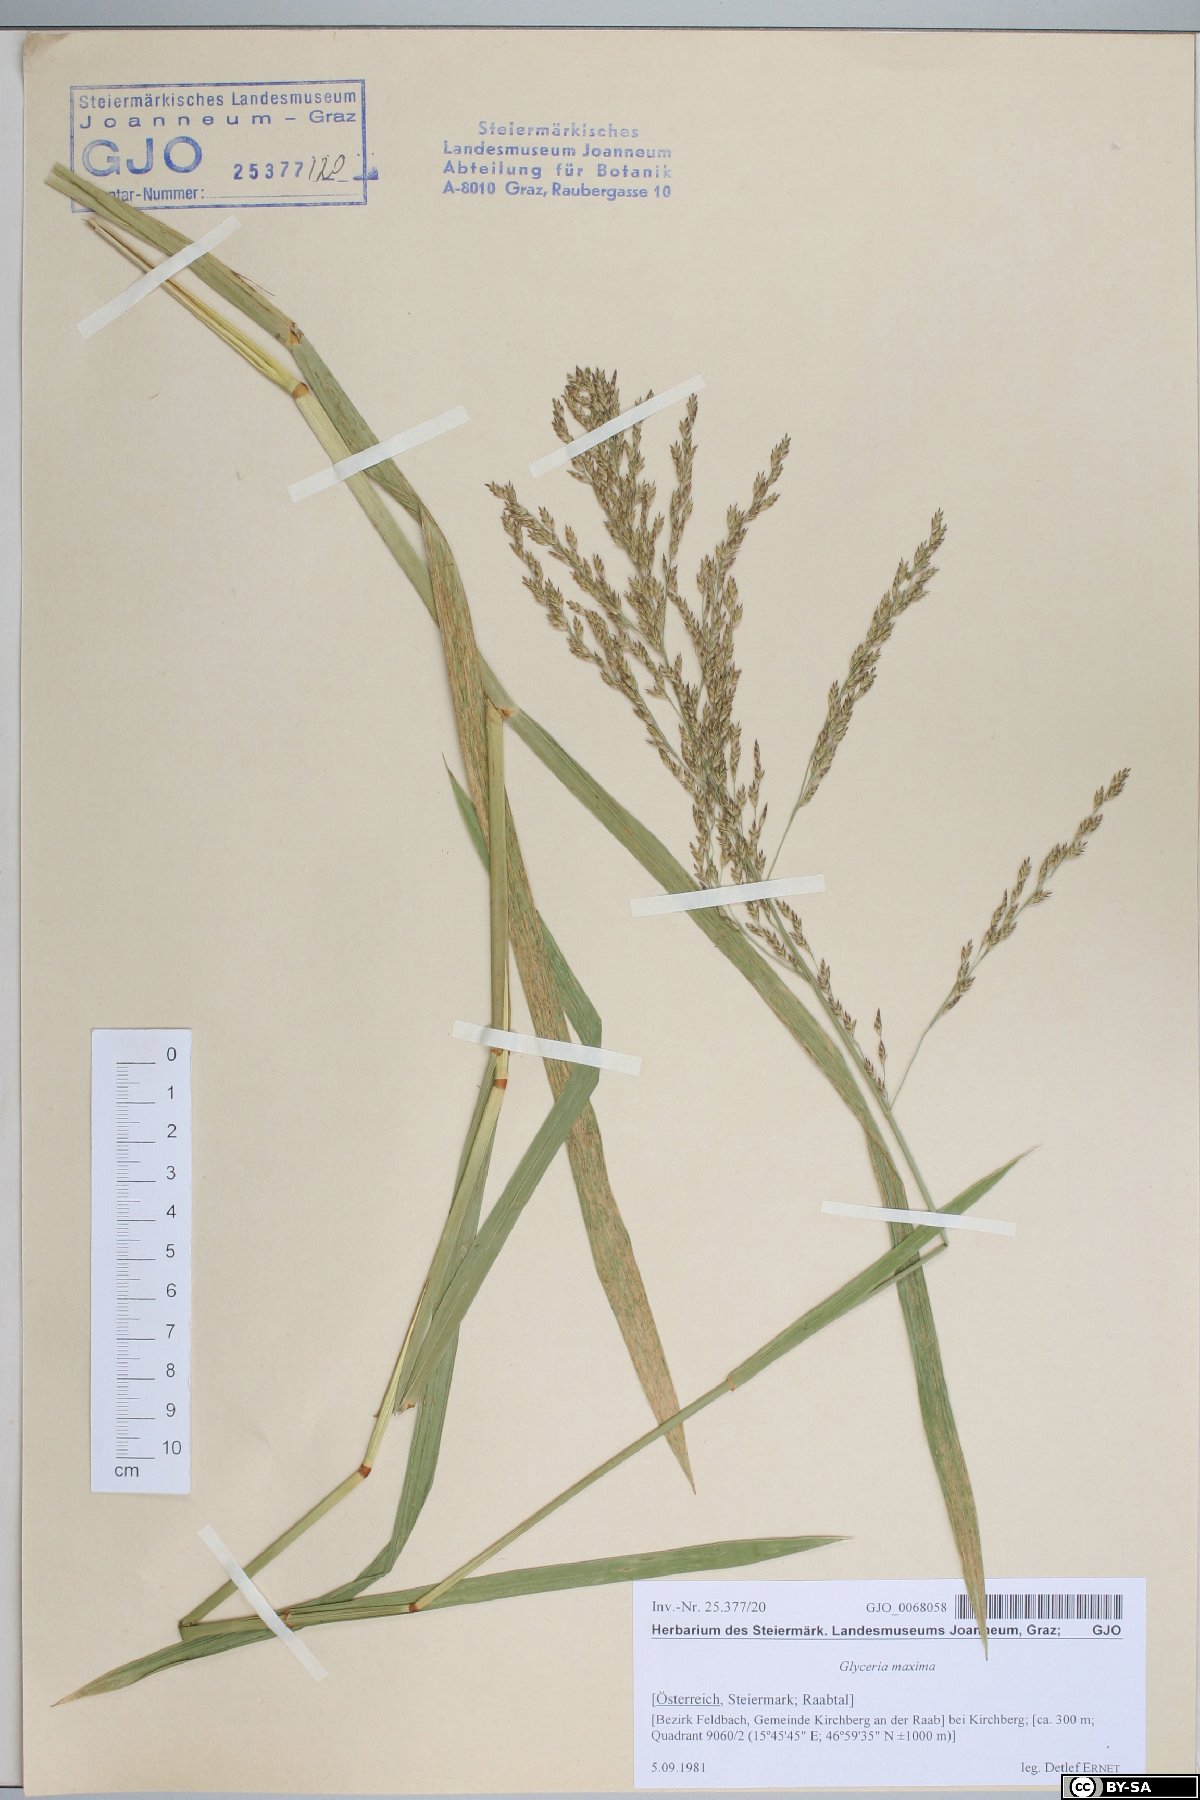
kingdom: Plantae
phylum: Tracheophyta
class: Liliopsida
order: Poales
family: Poaceae
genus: Glyceria
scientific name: Glyceria maxima
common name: Reed mannagrass
